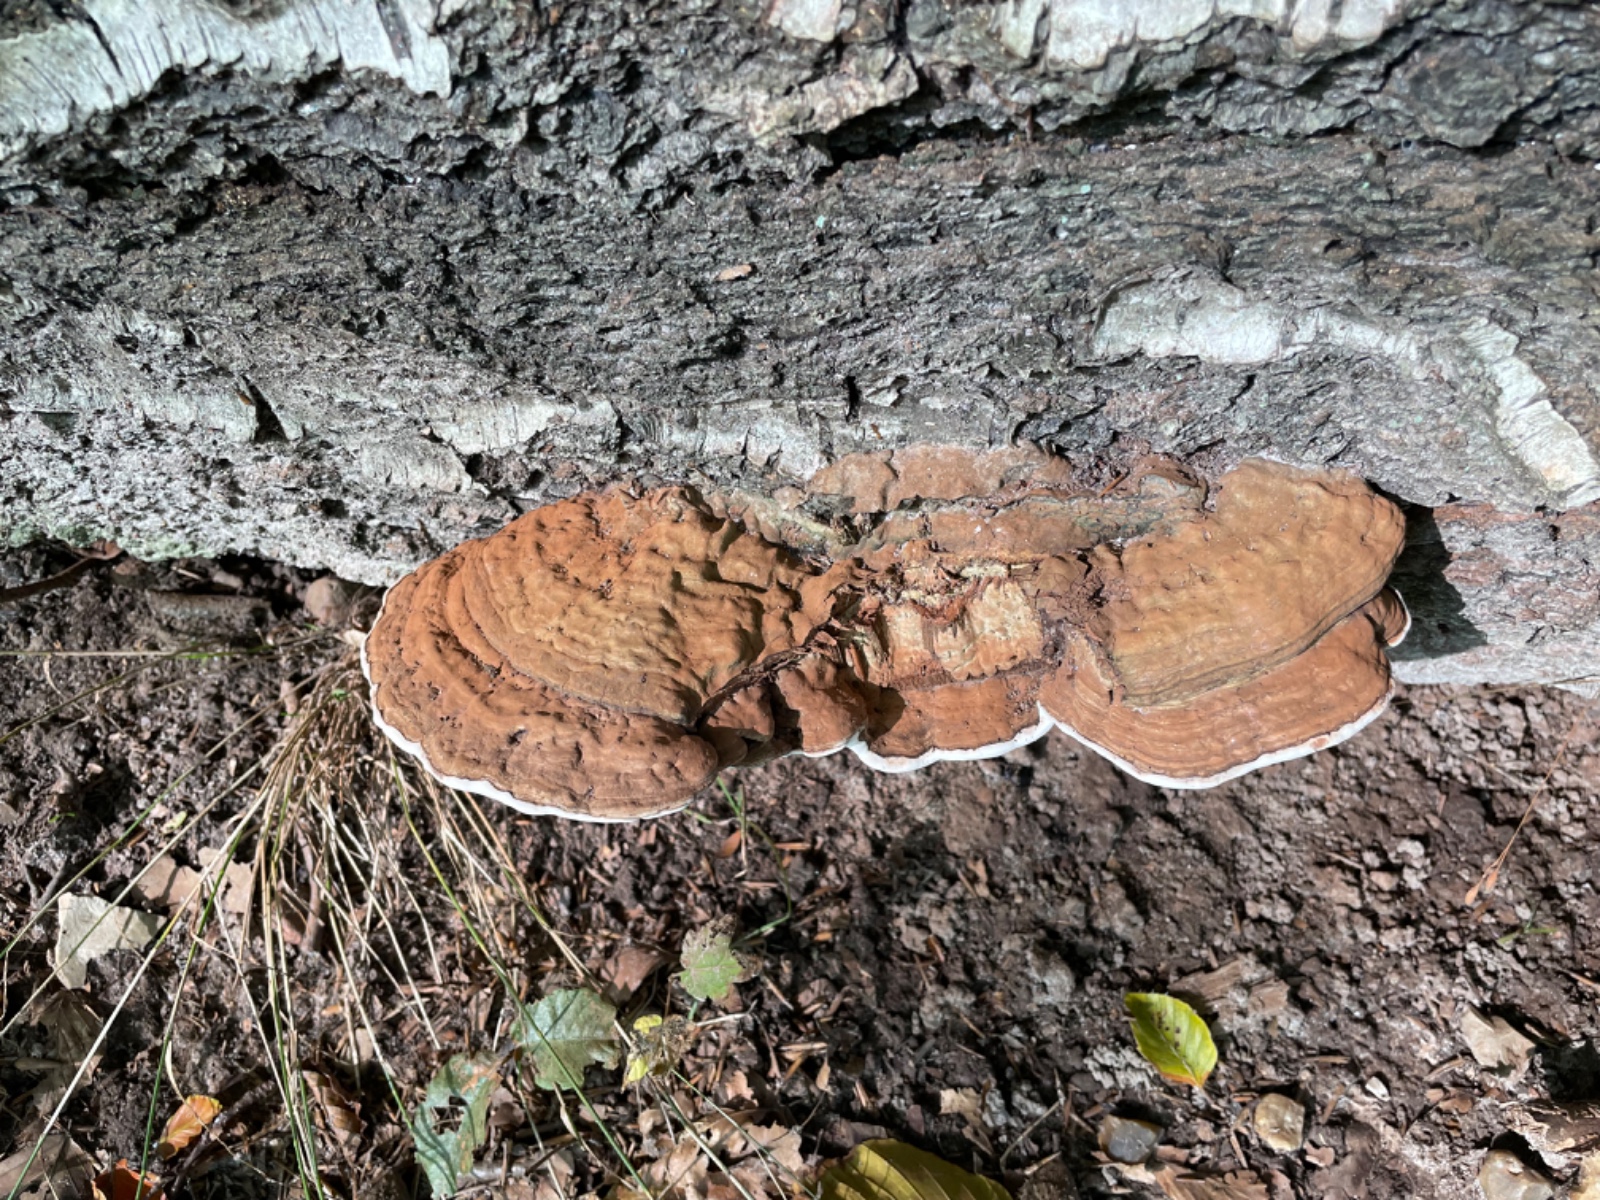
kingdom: Fungi
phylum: Basidiomycota
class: Agaricomycetes
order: Polyporales
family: Polyporaceae
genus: Ganoderma
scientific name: Ganoderma applanatum
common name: flad lakporesvamp
